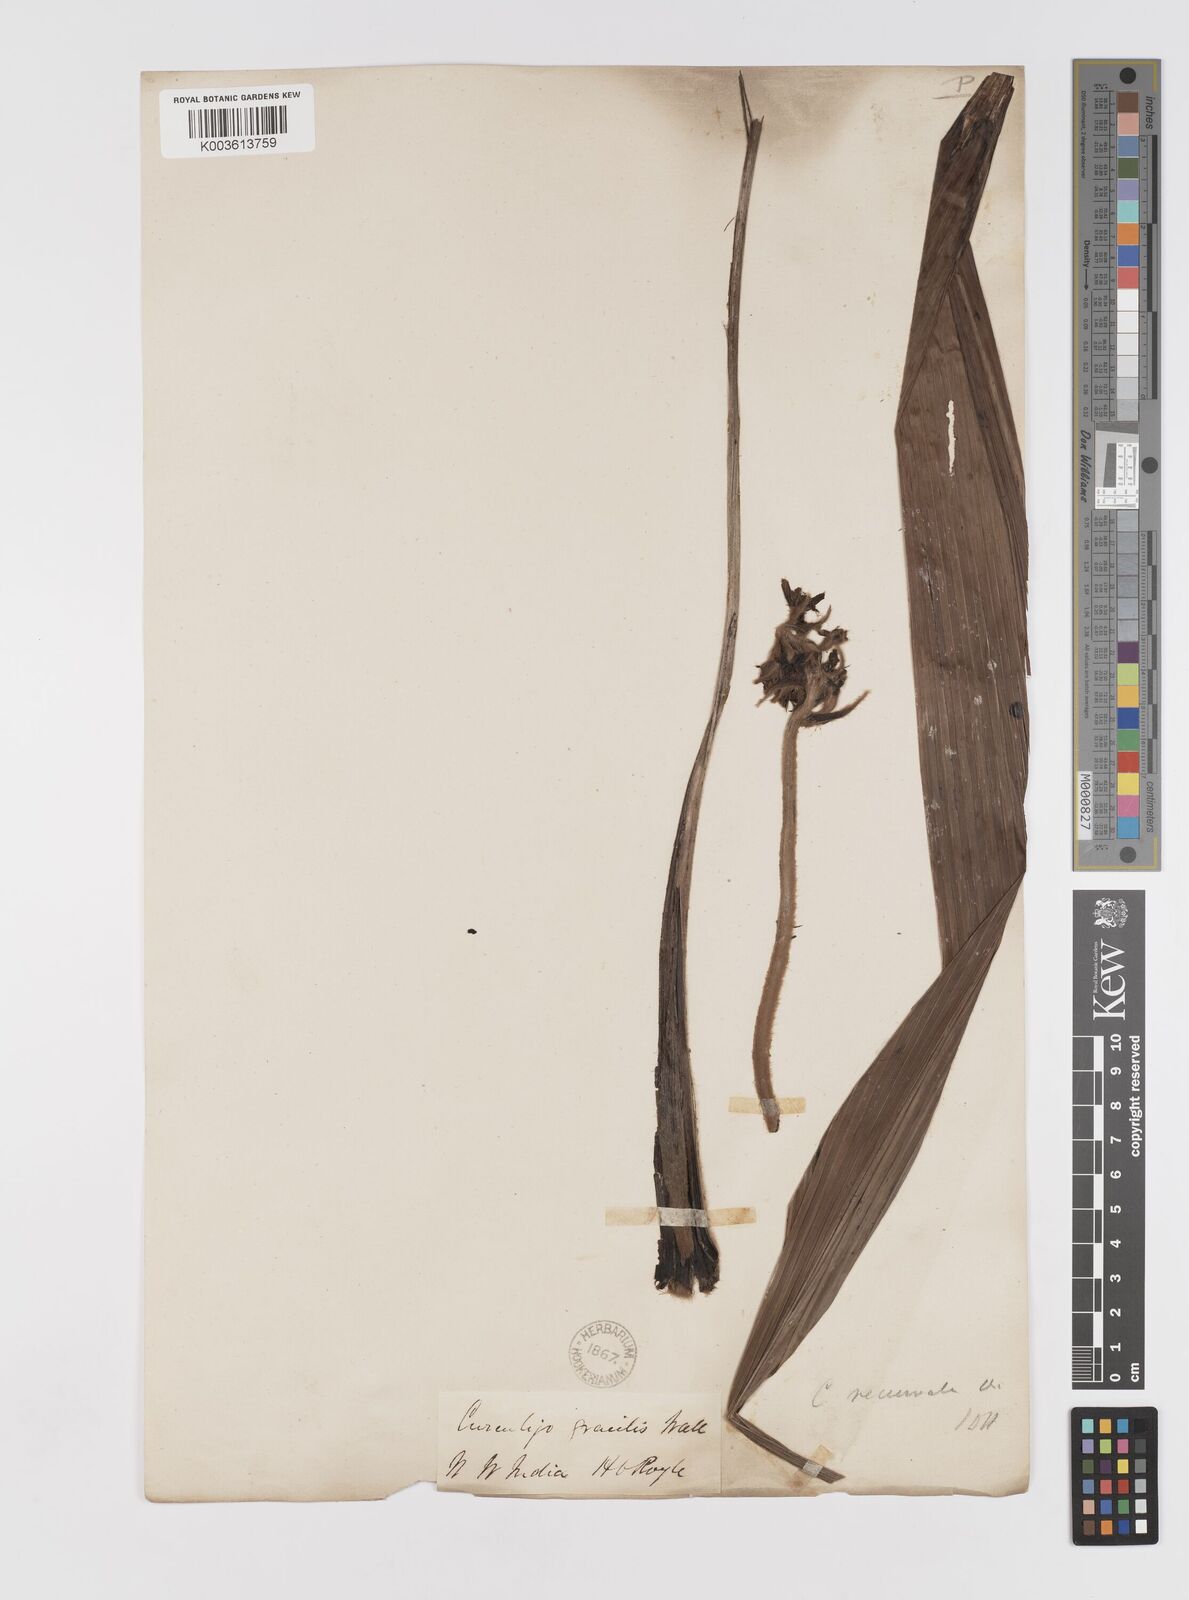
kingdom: Plantae
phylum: Tracheophyta
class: Liliopsida
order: Asparagales
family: Hypoxidaceae
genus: Curculigo
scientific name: Curculigo gracilis
